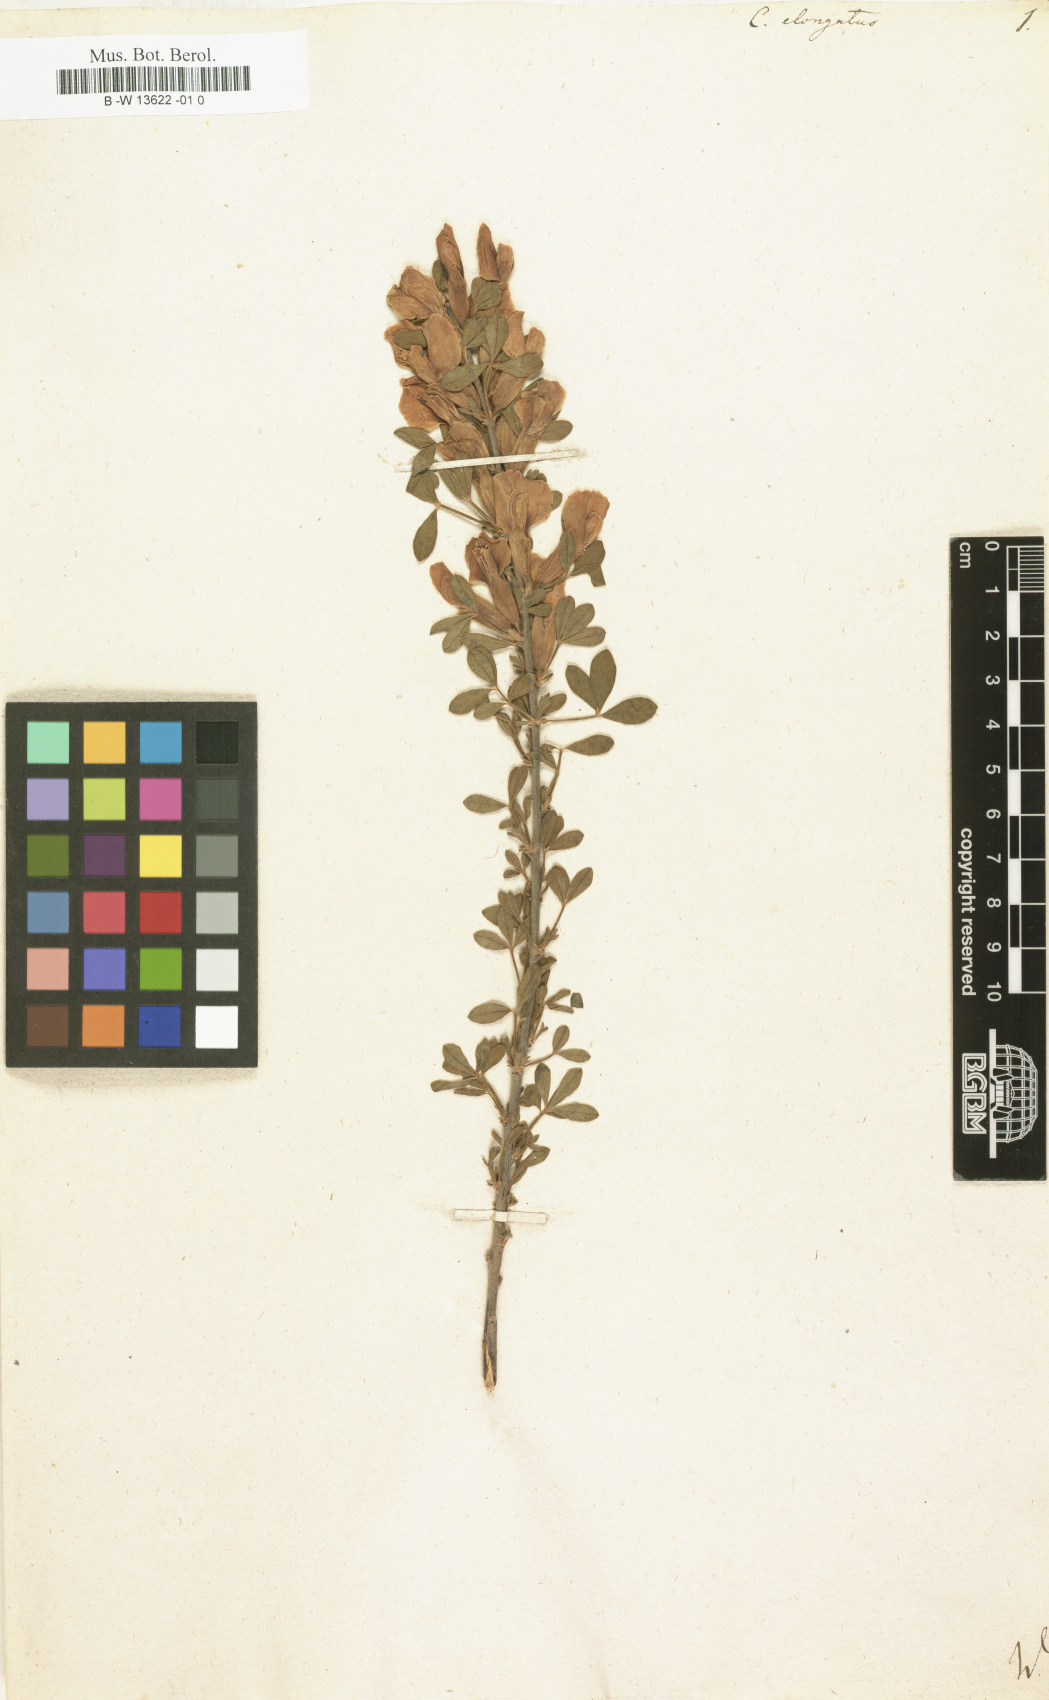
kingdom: Plantae
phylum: Tracheophyta
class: Magnoliopsida
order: Fabales
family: Fabaceae
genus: Chamaecytisus
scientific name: Chamaecytisus
